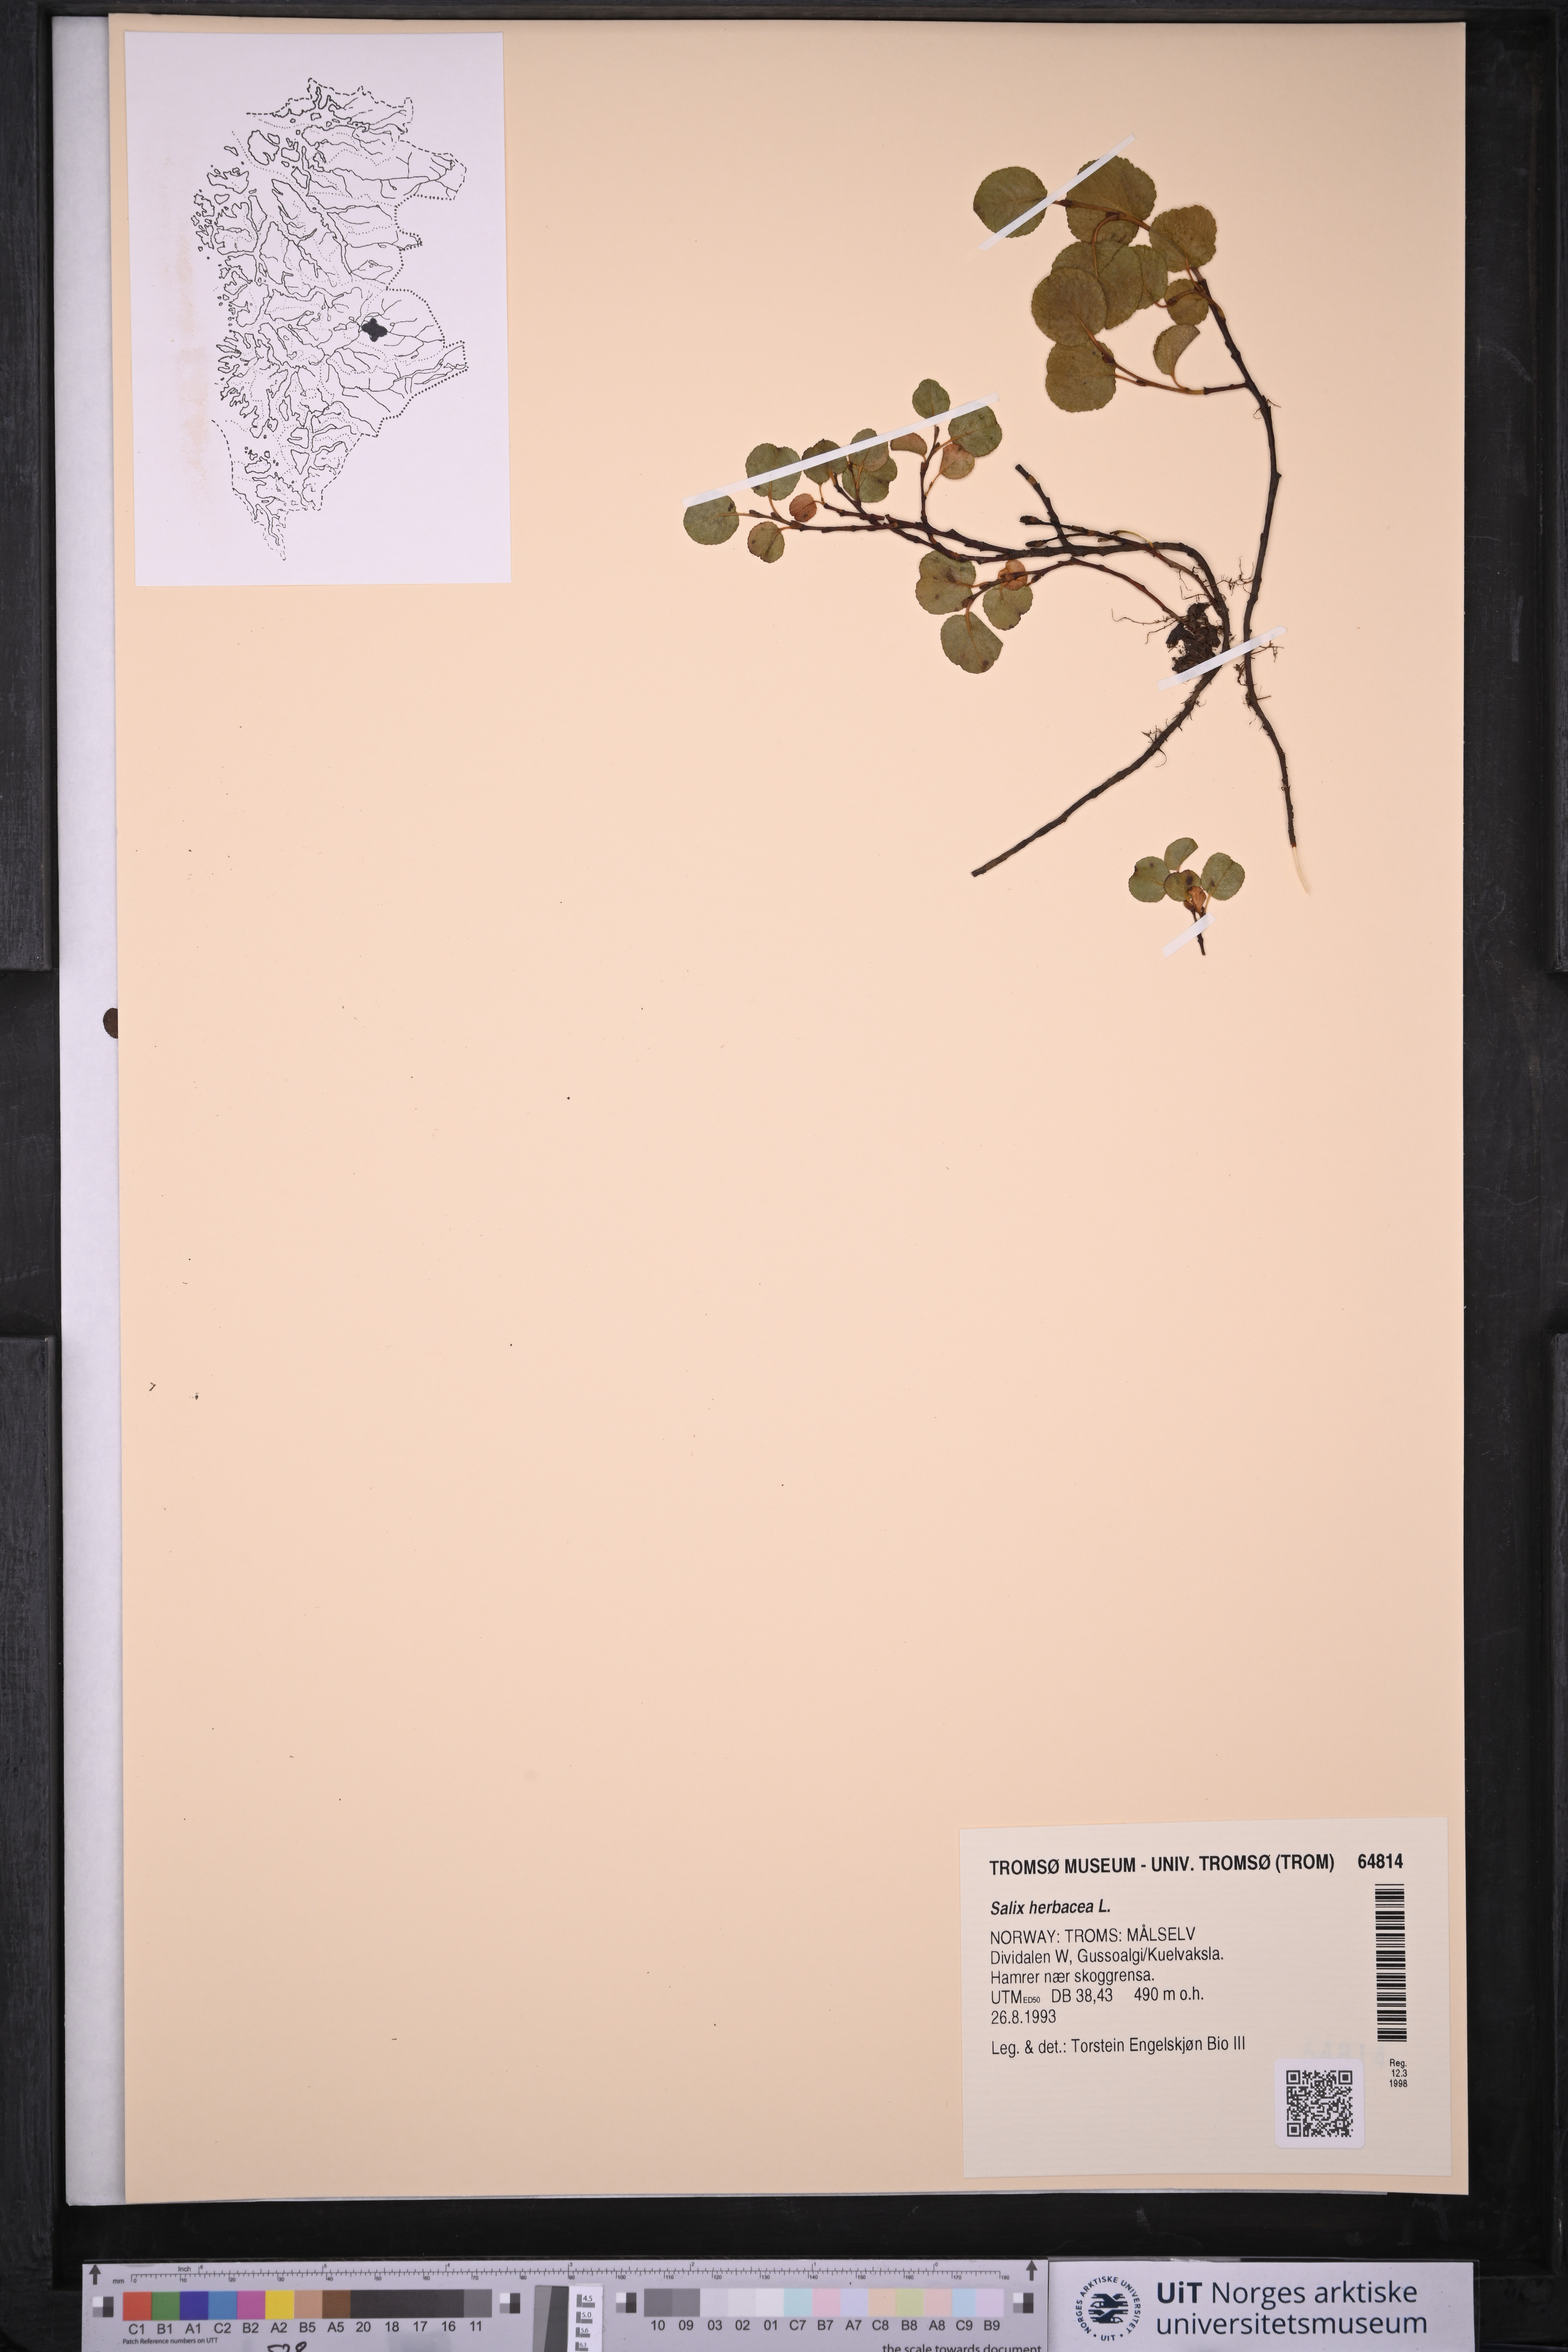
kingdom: Plantae
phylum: Tracheophyta
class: Magnoliopsida
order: Malpighiales
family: Salicaceae
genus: Salix
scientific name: Salix herbacea
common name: Dwarf willow
